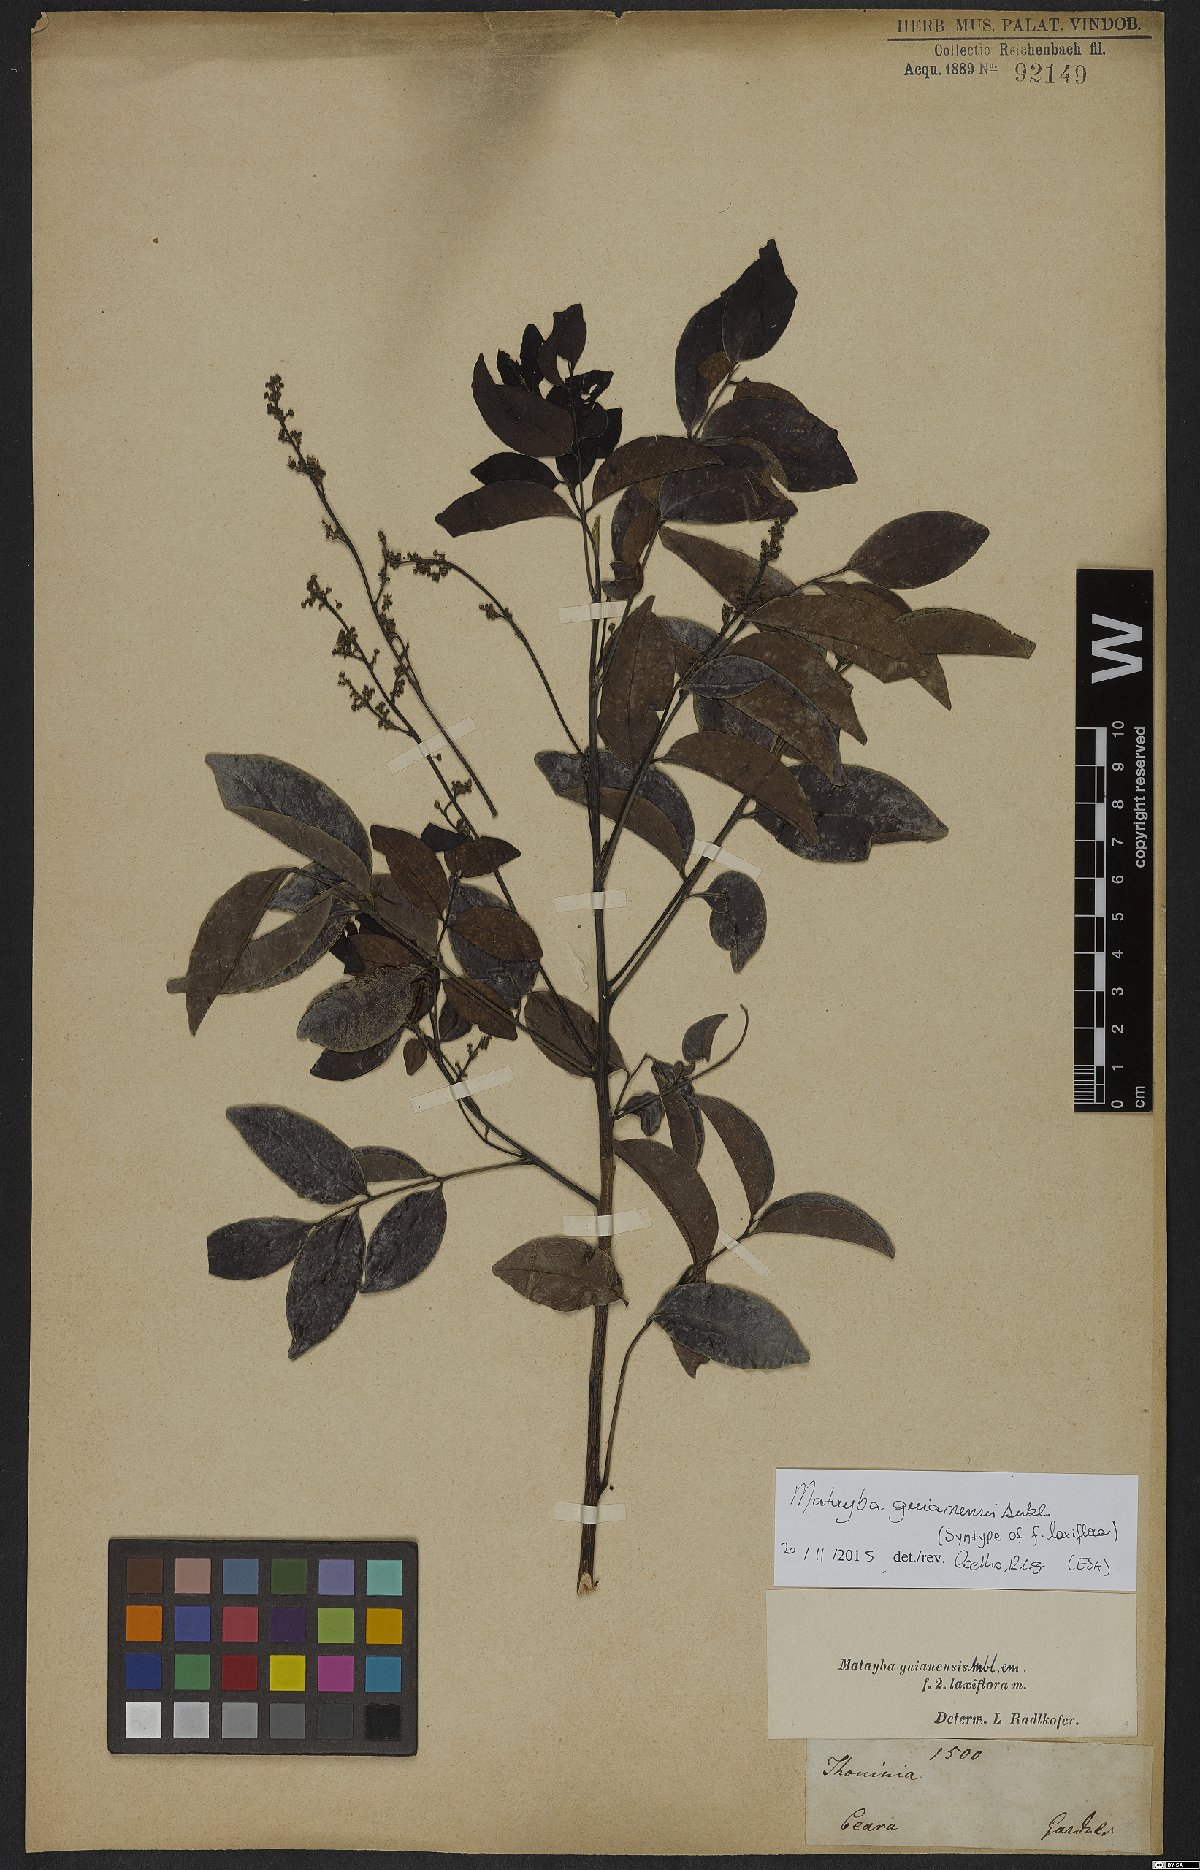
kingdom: Plantae
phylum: Tracheophyta
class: Magnoliopsida
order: Sapindales
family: Sapindaceae
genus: Matayba
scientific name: Matayba guianensis
